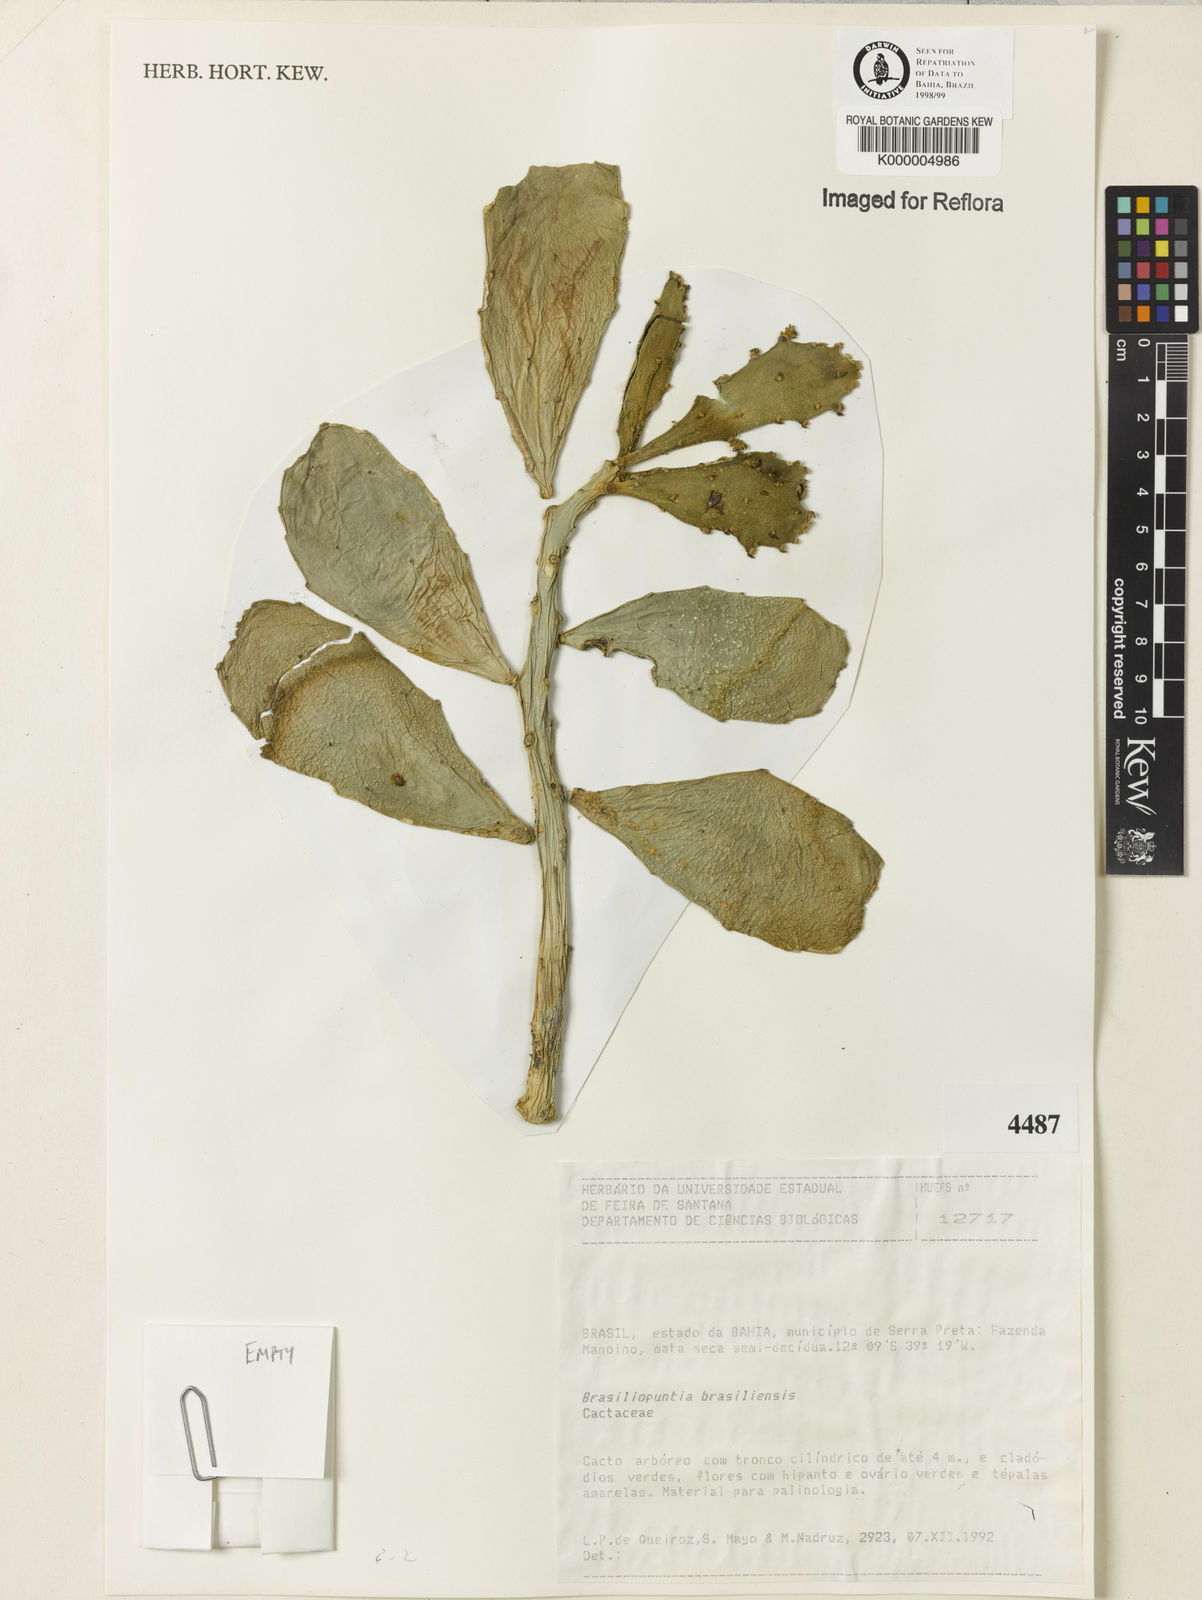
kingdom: Plantae
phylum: Tracheophyta
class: Magnoliopsida
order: Caryophyllales
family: Cactaceae
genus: Brasiliopuntia
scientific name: Brasiliopuntia brasiliensis
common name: Brazilian pricklypear
